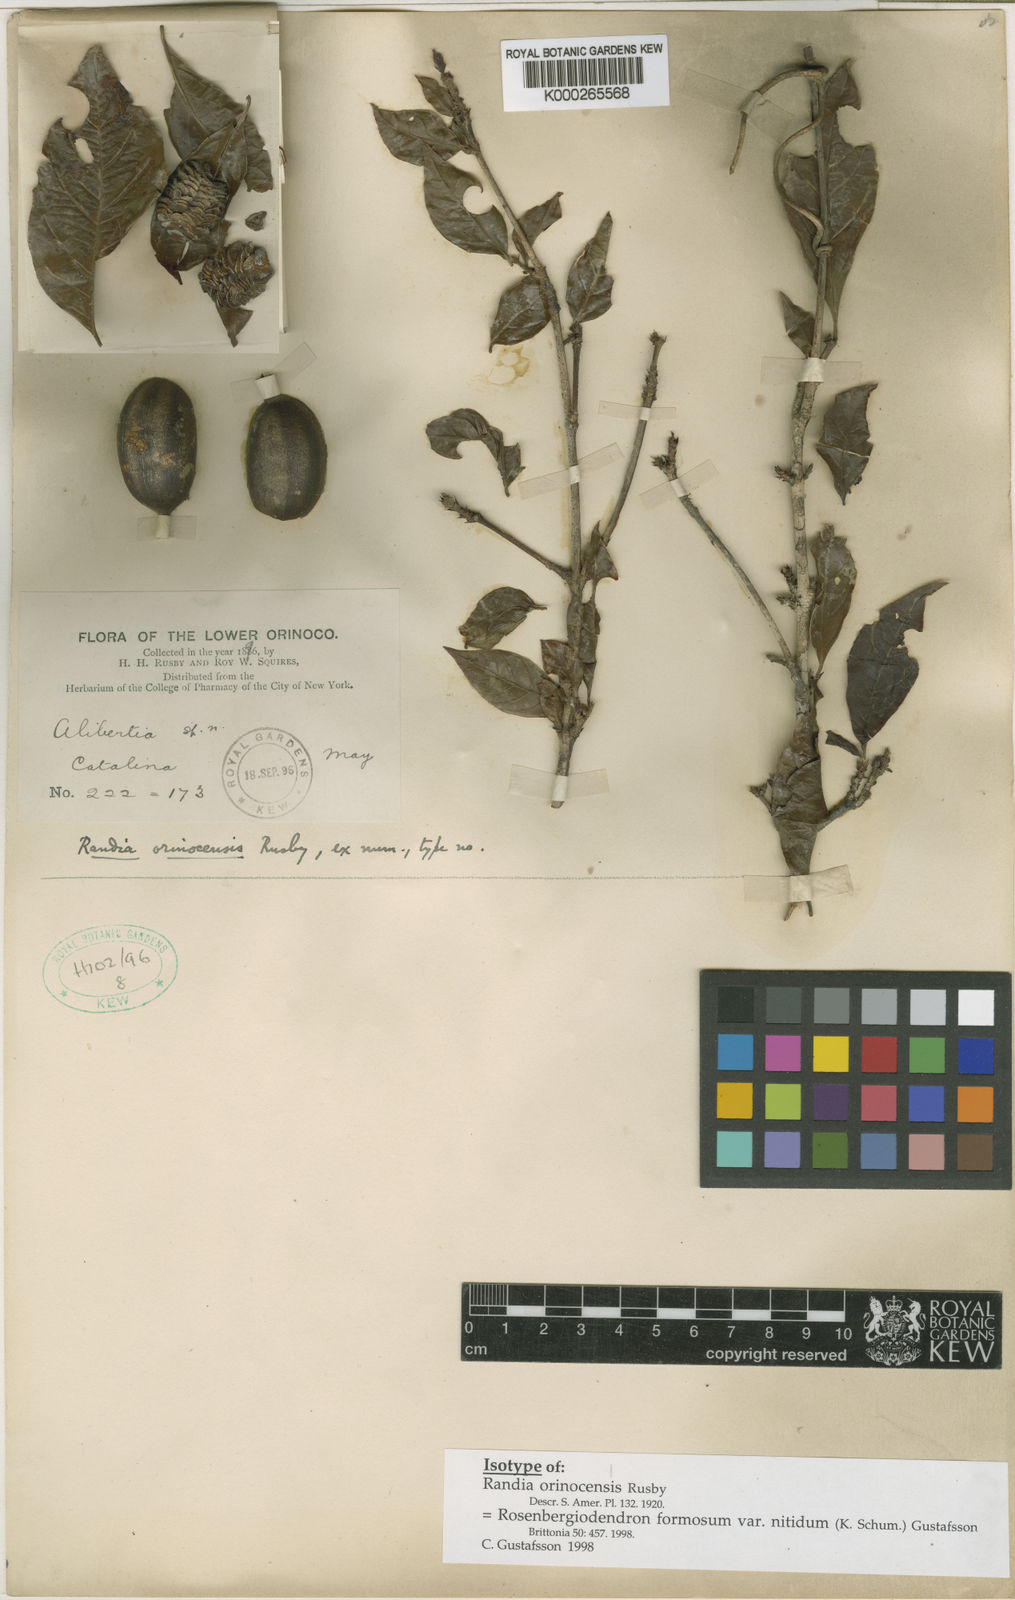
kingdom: Plantae
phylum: Tracheophyta
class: Magnoliopsida
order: Gentianales
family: Rubiaceae
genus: Rosenbergiodendron
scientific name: Rosenbergiodendron formosum
